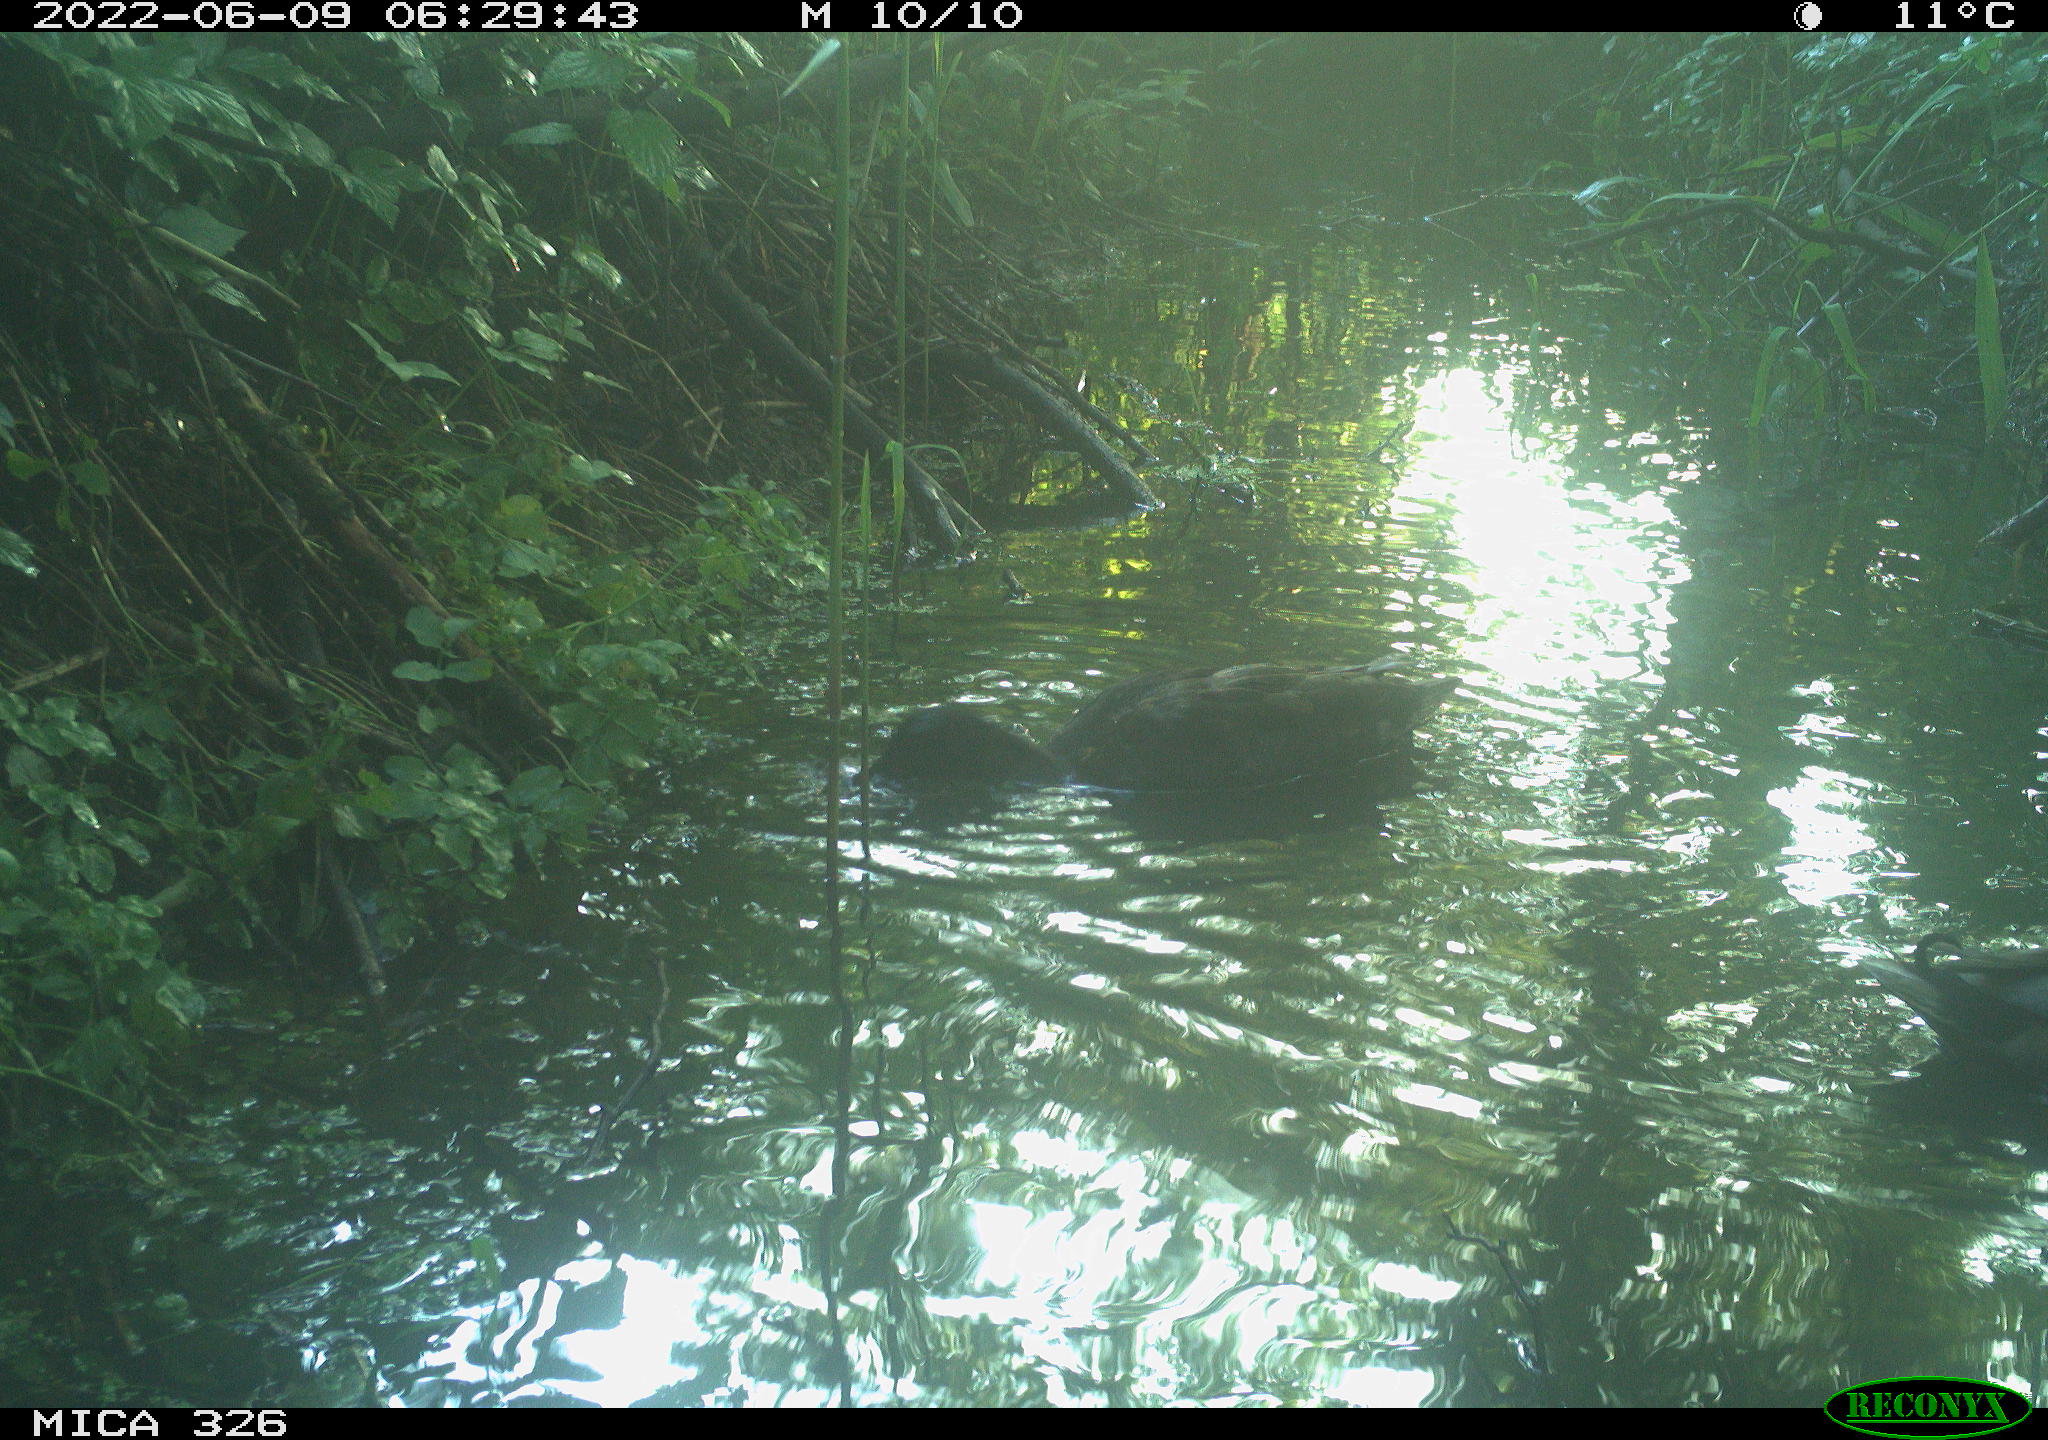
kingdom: Animalia
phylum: Chordata
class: Aves
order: Anseriformes
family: Anatidae
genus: Anas
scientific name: Anas
